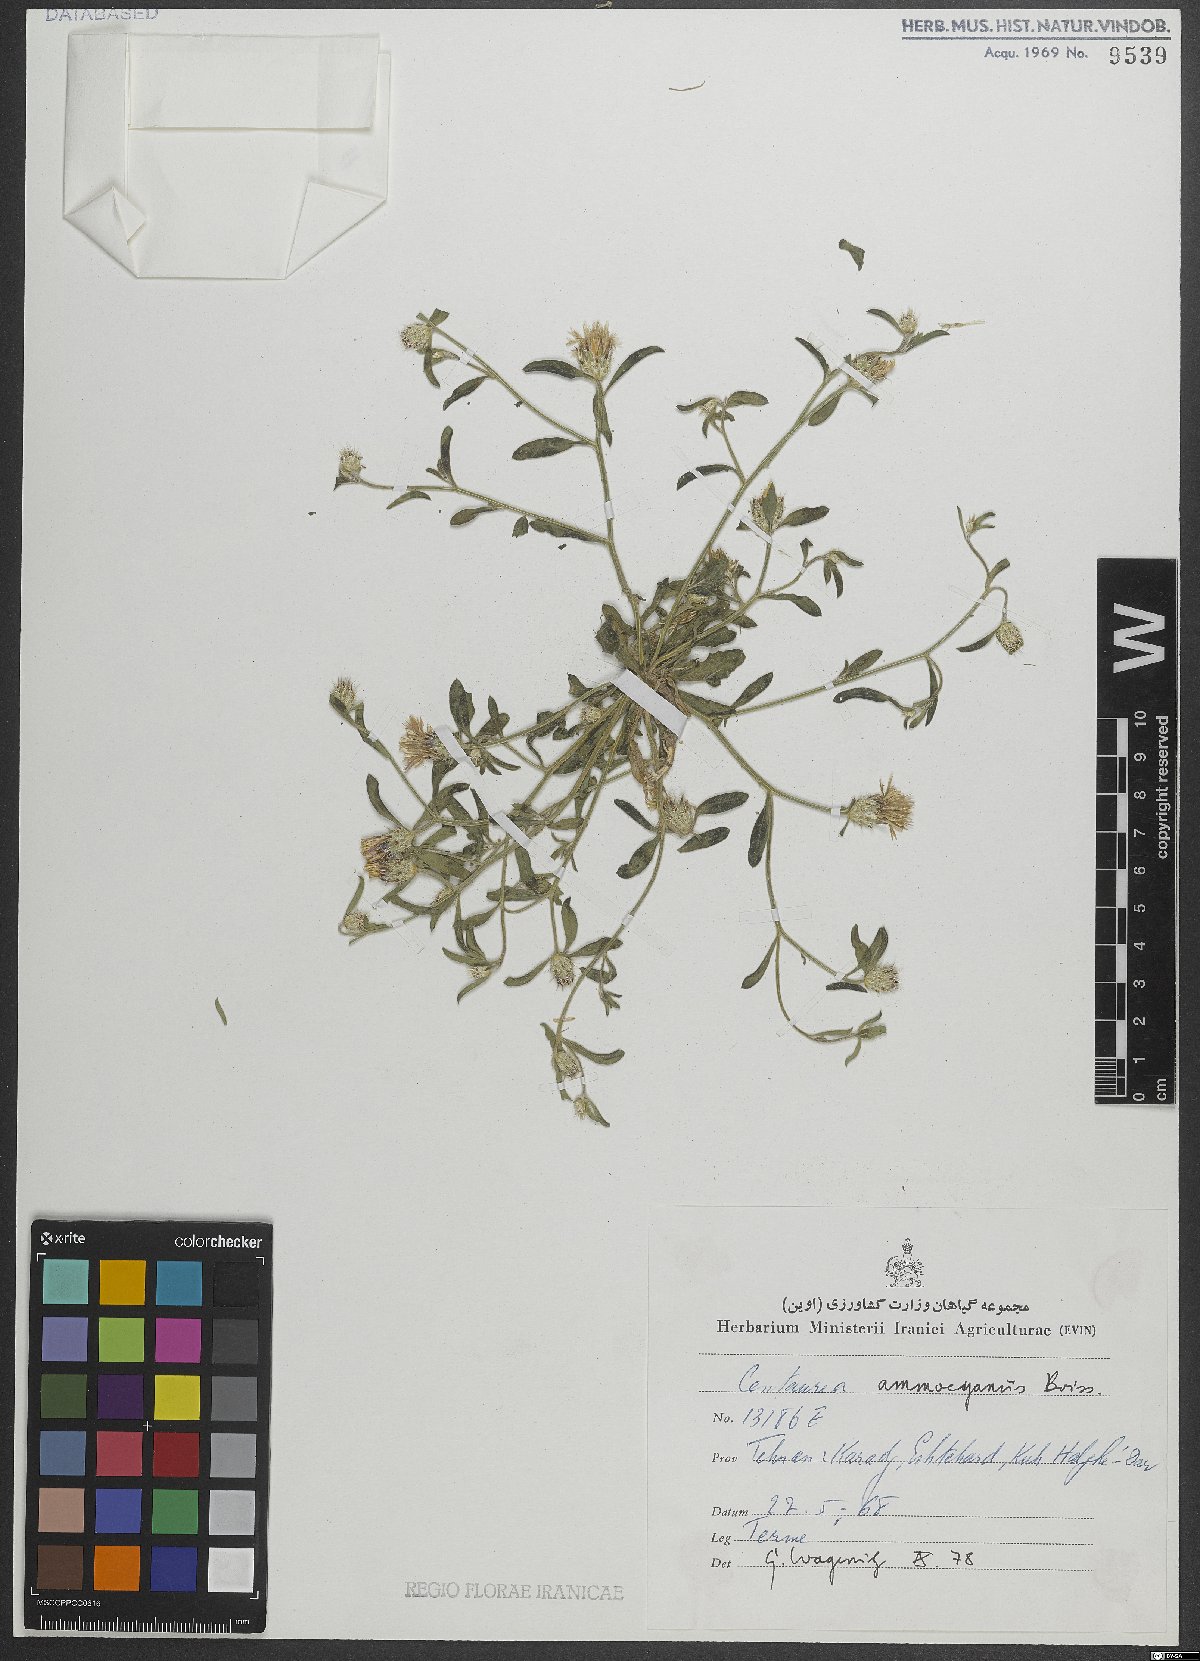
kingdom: Plantae
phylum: Tracheophyta
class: Magnoliopsida
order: Asterales
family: Asteraceae
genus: Centaurea
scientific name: Centaurea ammocyanus
